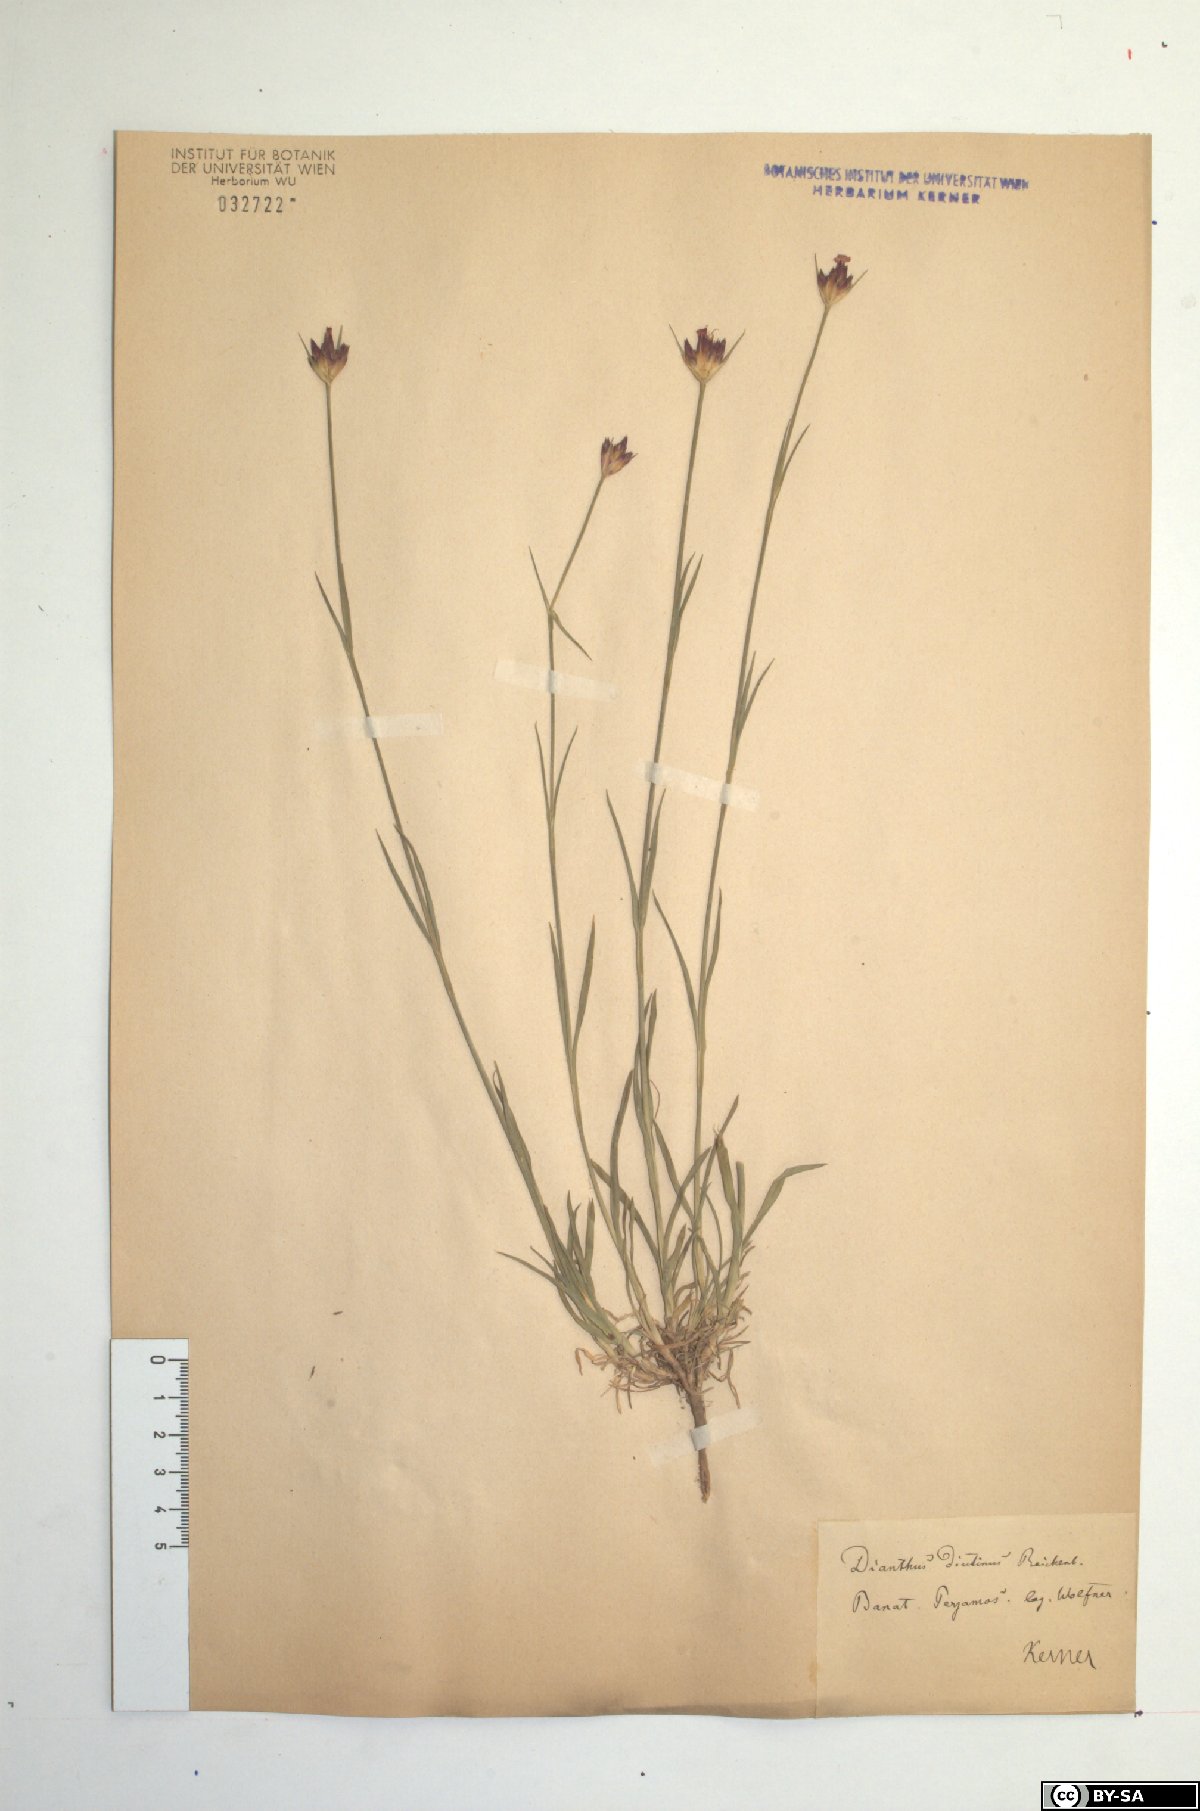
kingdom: Plantae
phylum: Tracheophyta
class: Magnoliopsida
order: Caryophyllales
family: Caryophyllaceae
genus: Dianthus
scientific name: Dianthus pontederae
